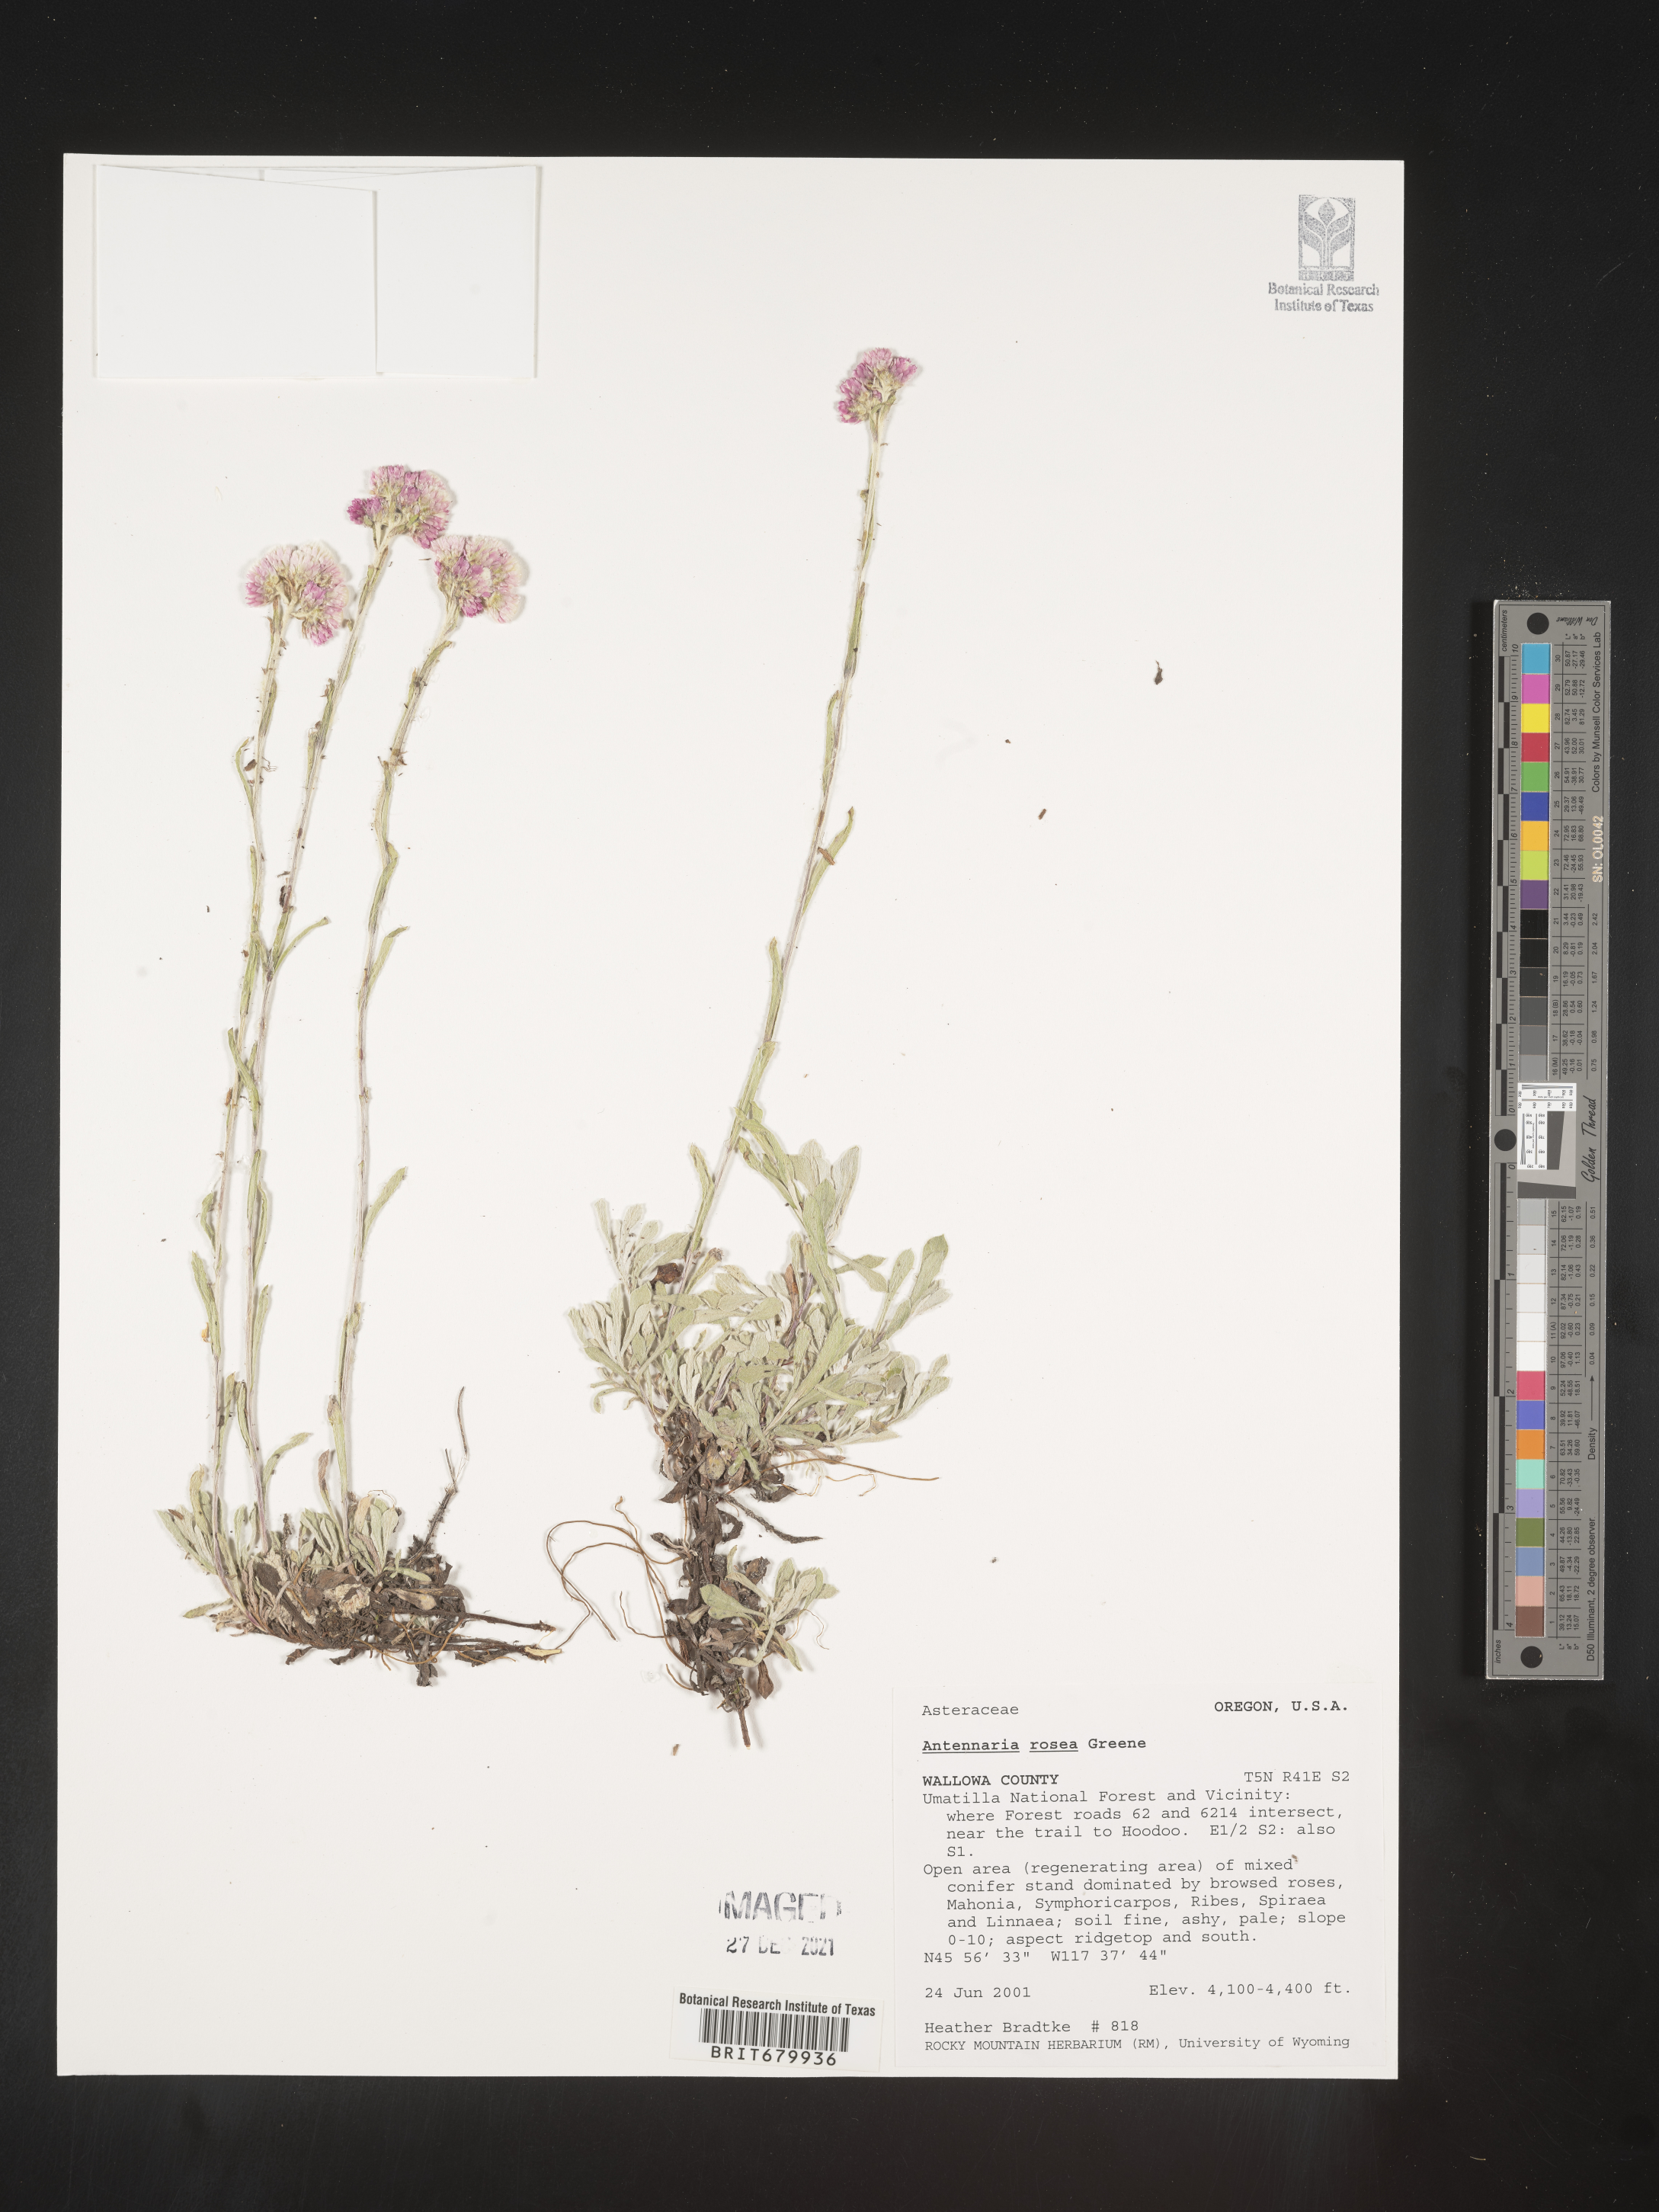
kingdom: Plantae
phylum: Tracheophyta
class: Magnoliopsida
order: Asterales
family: Asteraceae
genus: Antennaria
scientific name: Antennaria rosea
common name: Rosy pussytoes
